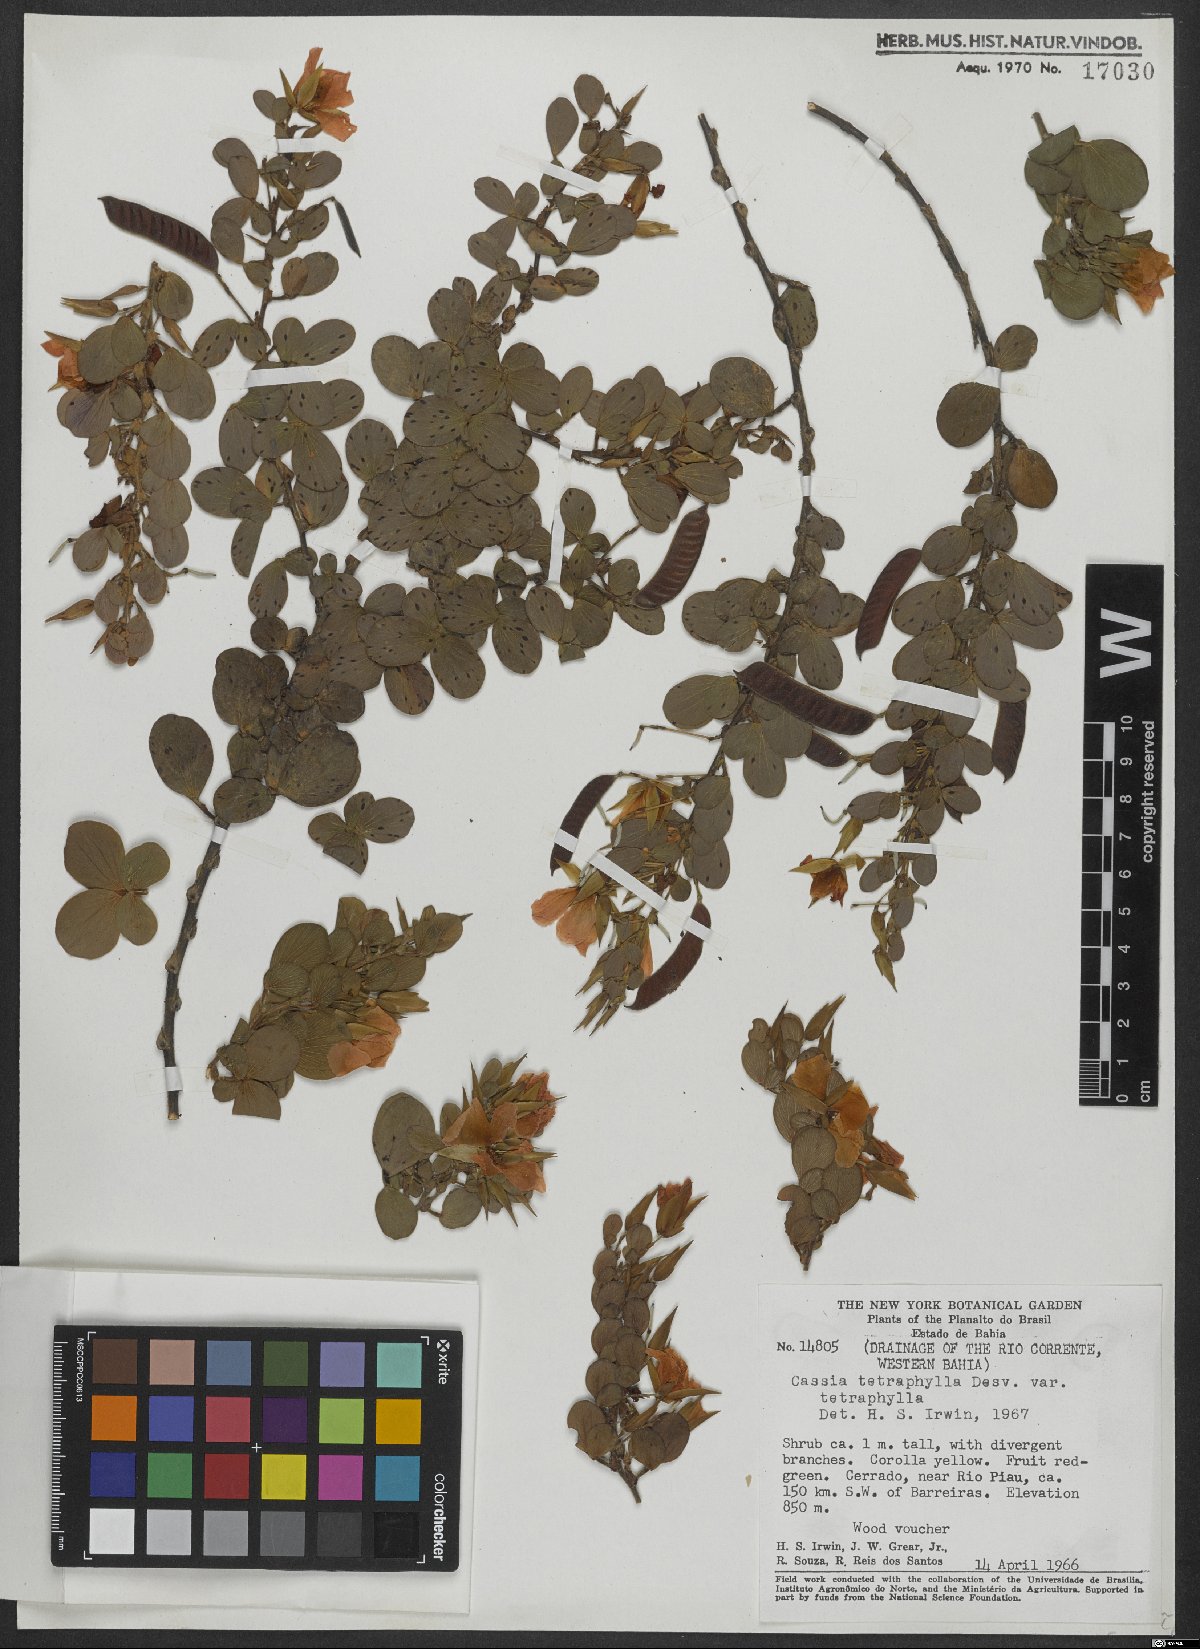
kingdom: Plantae
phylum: Tracheophyta
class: Magnoliopsida
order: Fabales
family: Fabaceae
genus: Chamaecrista
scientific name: Chamaecrista desvauxii
